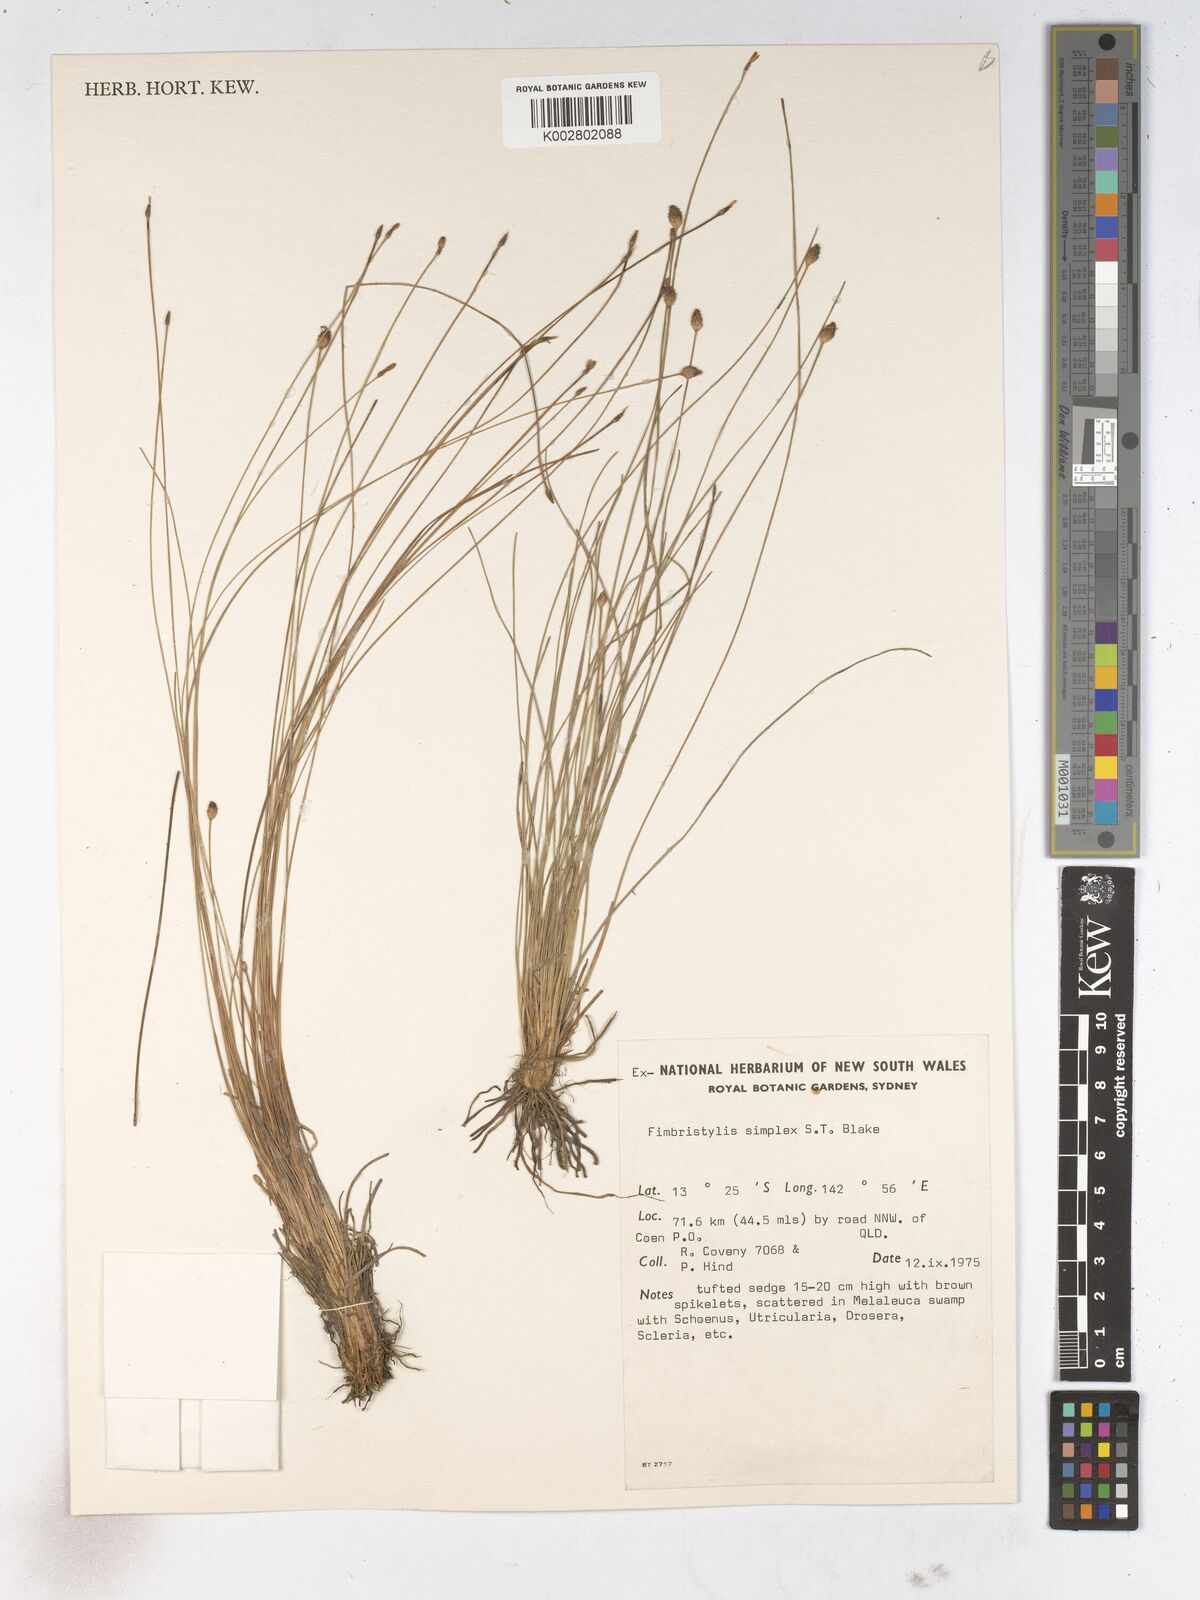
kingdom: Plantae
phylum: Tracheophyta
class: Liliopsida
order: Poales
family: Cyperaceae
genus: Fimbristylis
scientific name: Fimbristylis simplex
